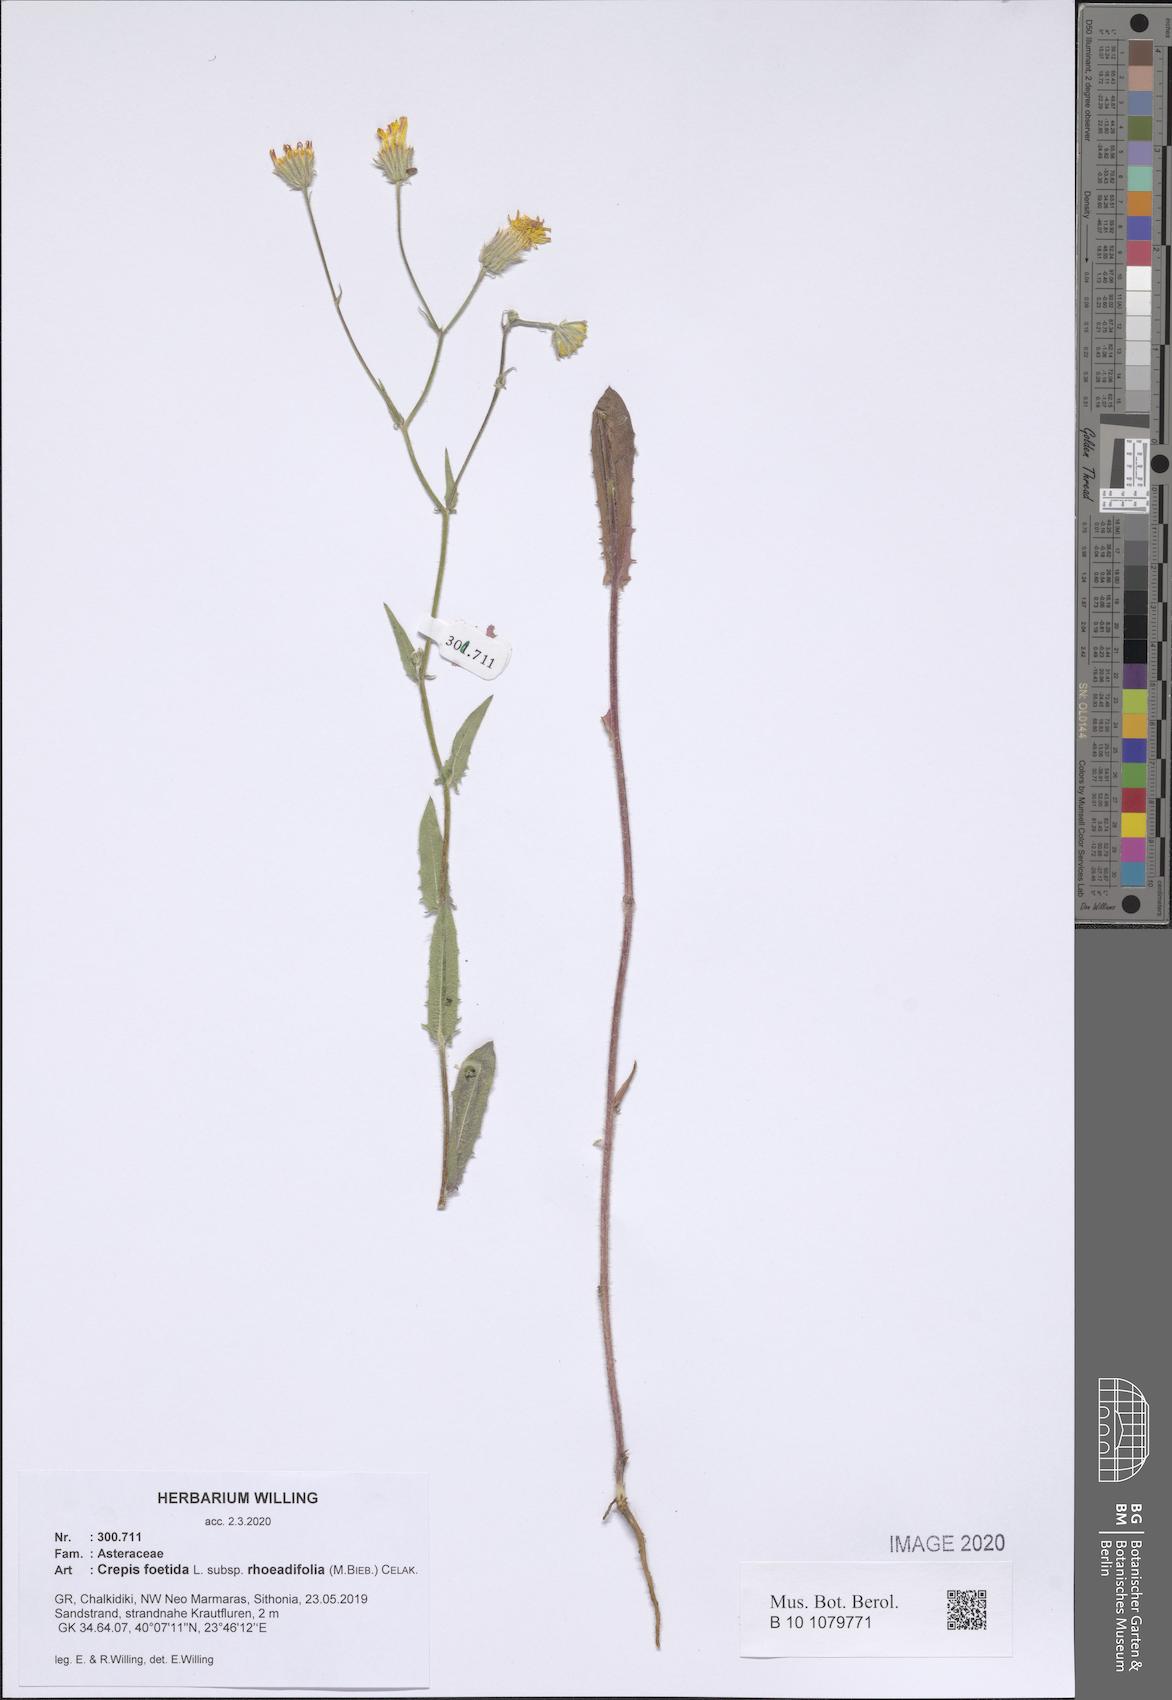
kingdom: Plantae
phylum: Tracheophyta
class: Magnoliopsida
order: Asterales
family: Asteraceae
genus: Crepis
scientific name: Crepis foetida
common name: Stinking hawk's-beard
